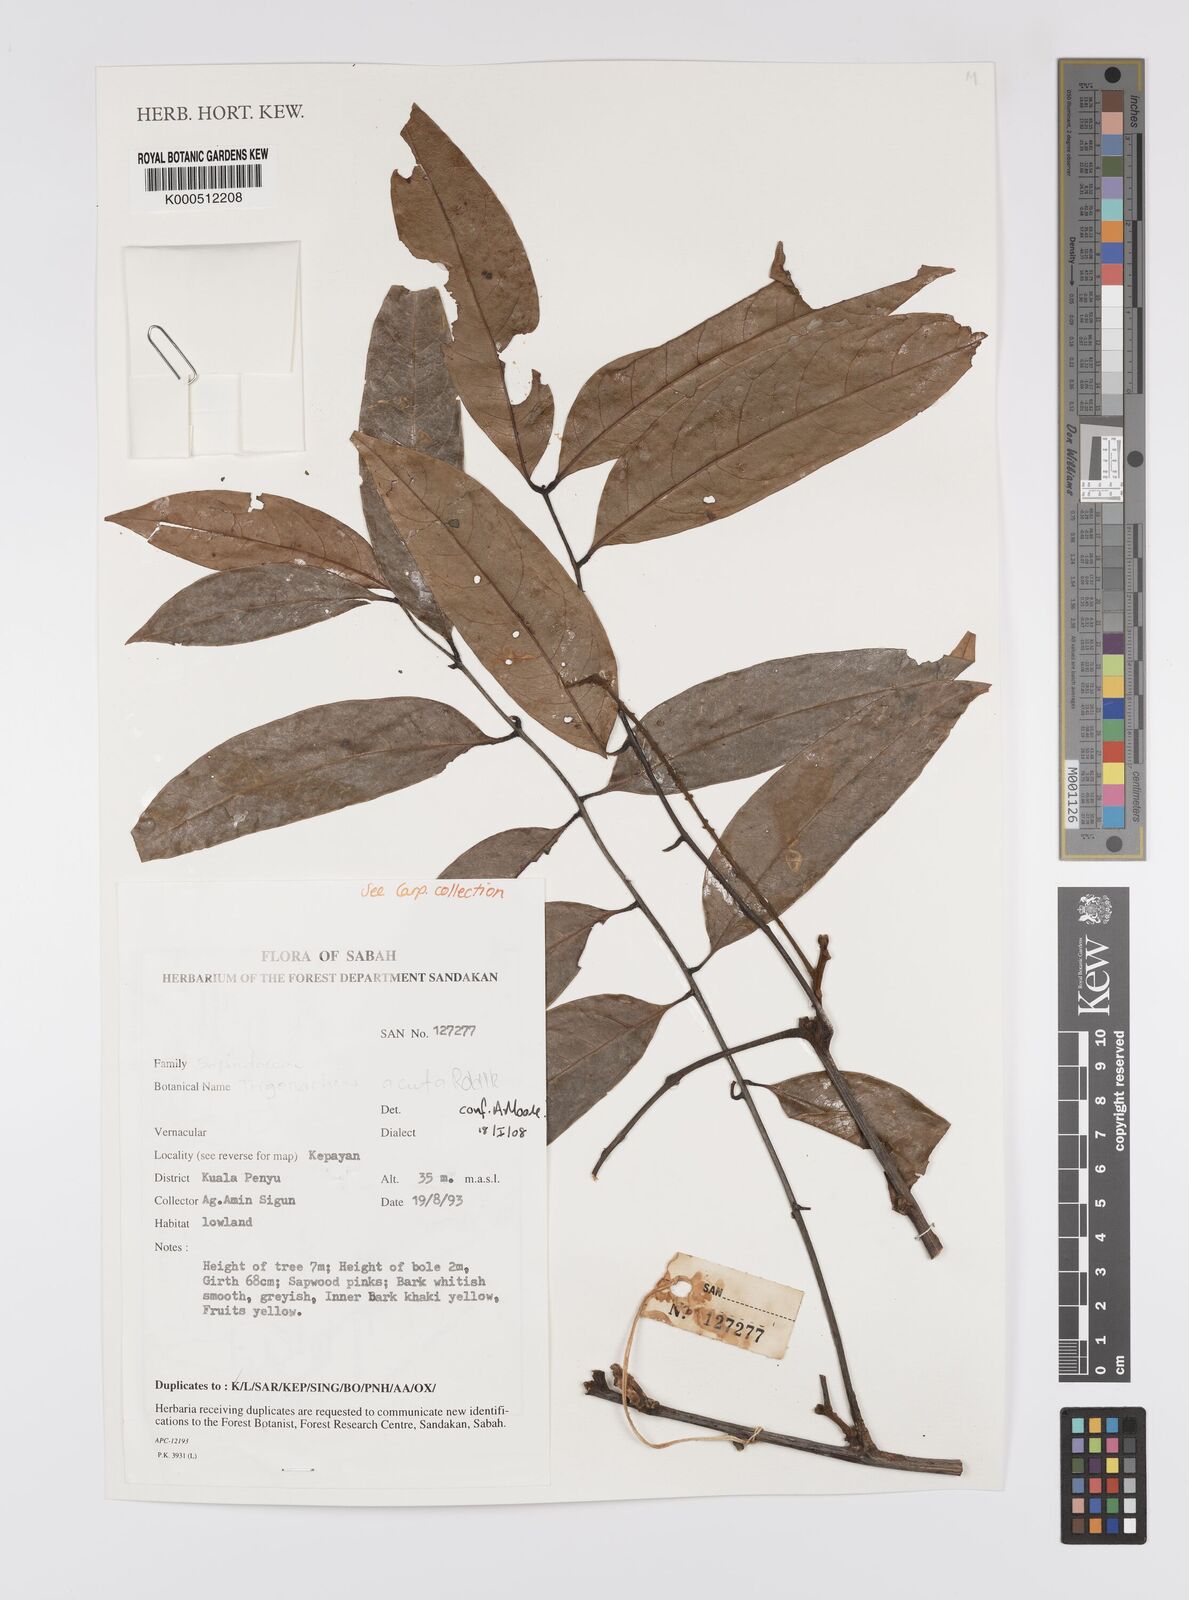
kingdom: Plantae
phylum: Tracheophyta
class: Magnoliopsida
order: Sapindales
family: Sapindaceae
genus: Trigonachras
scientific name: Trigonachras acuta
